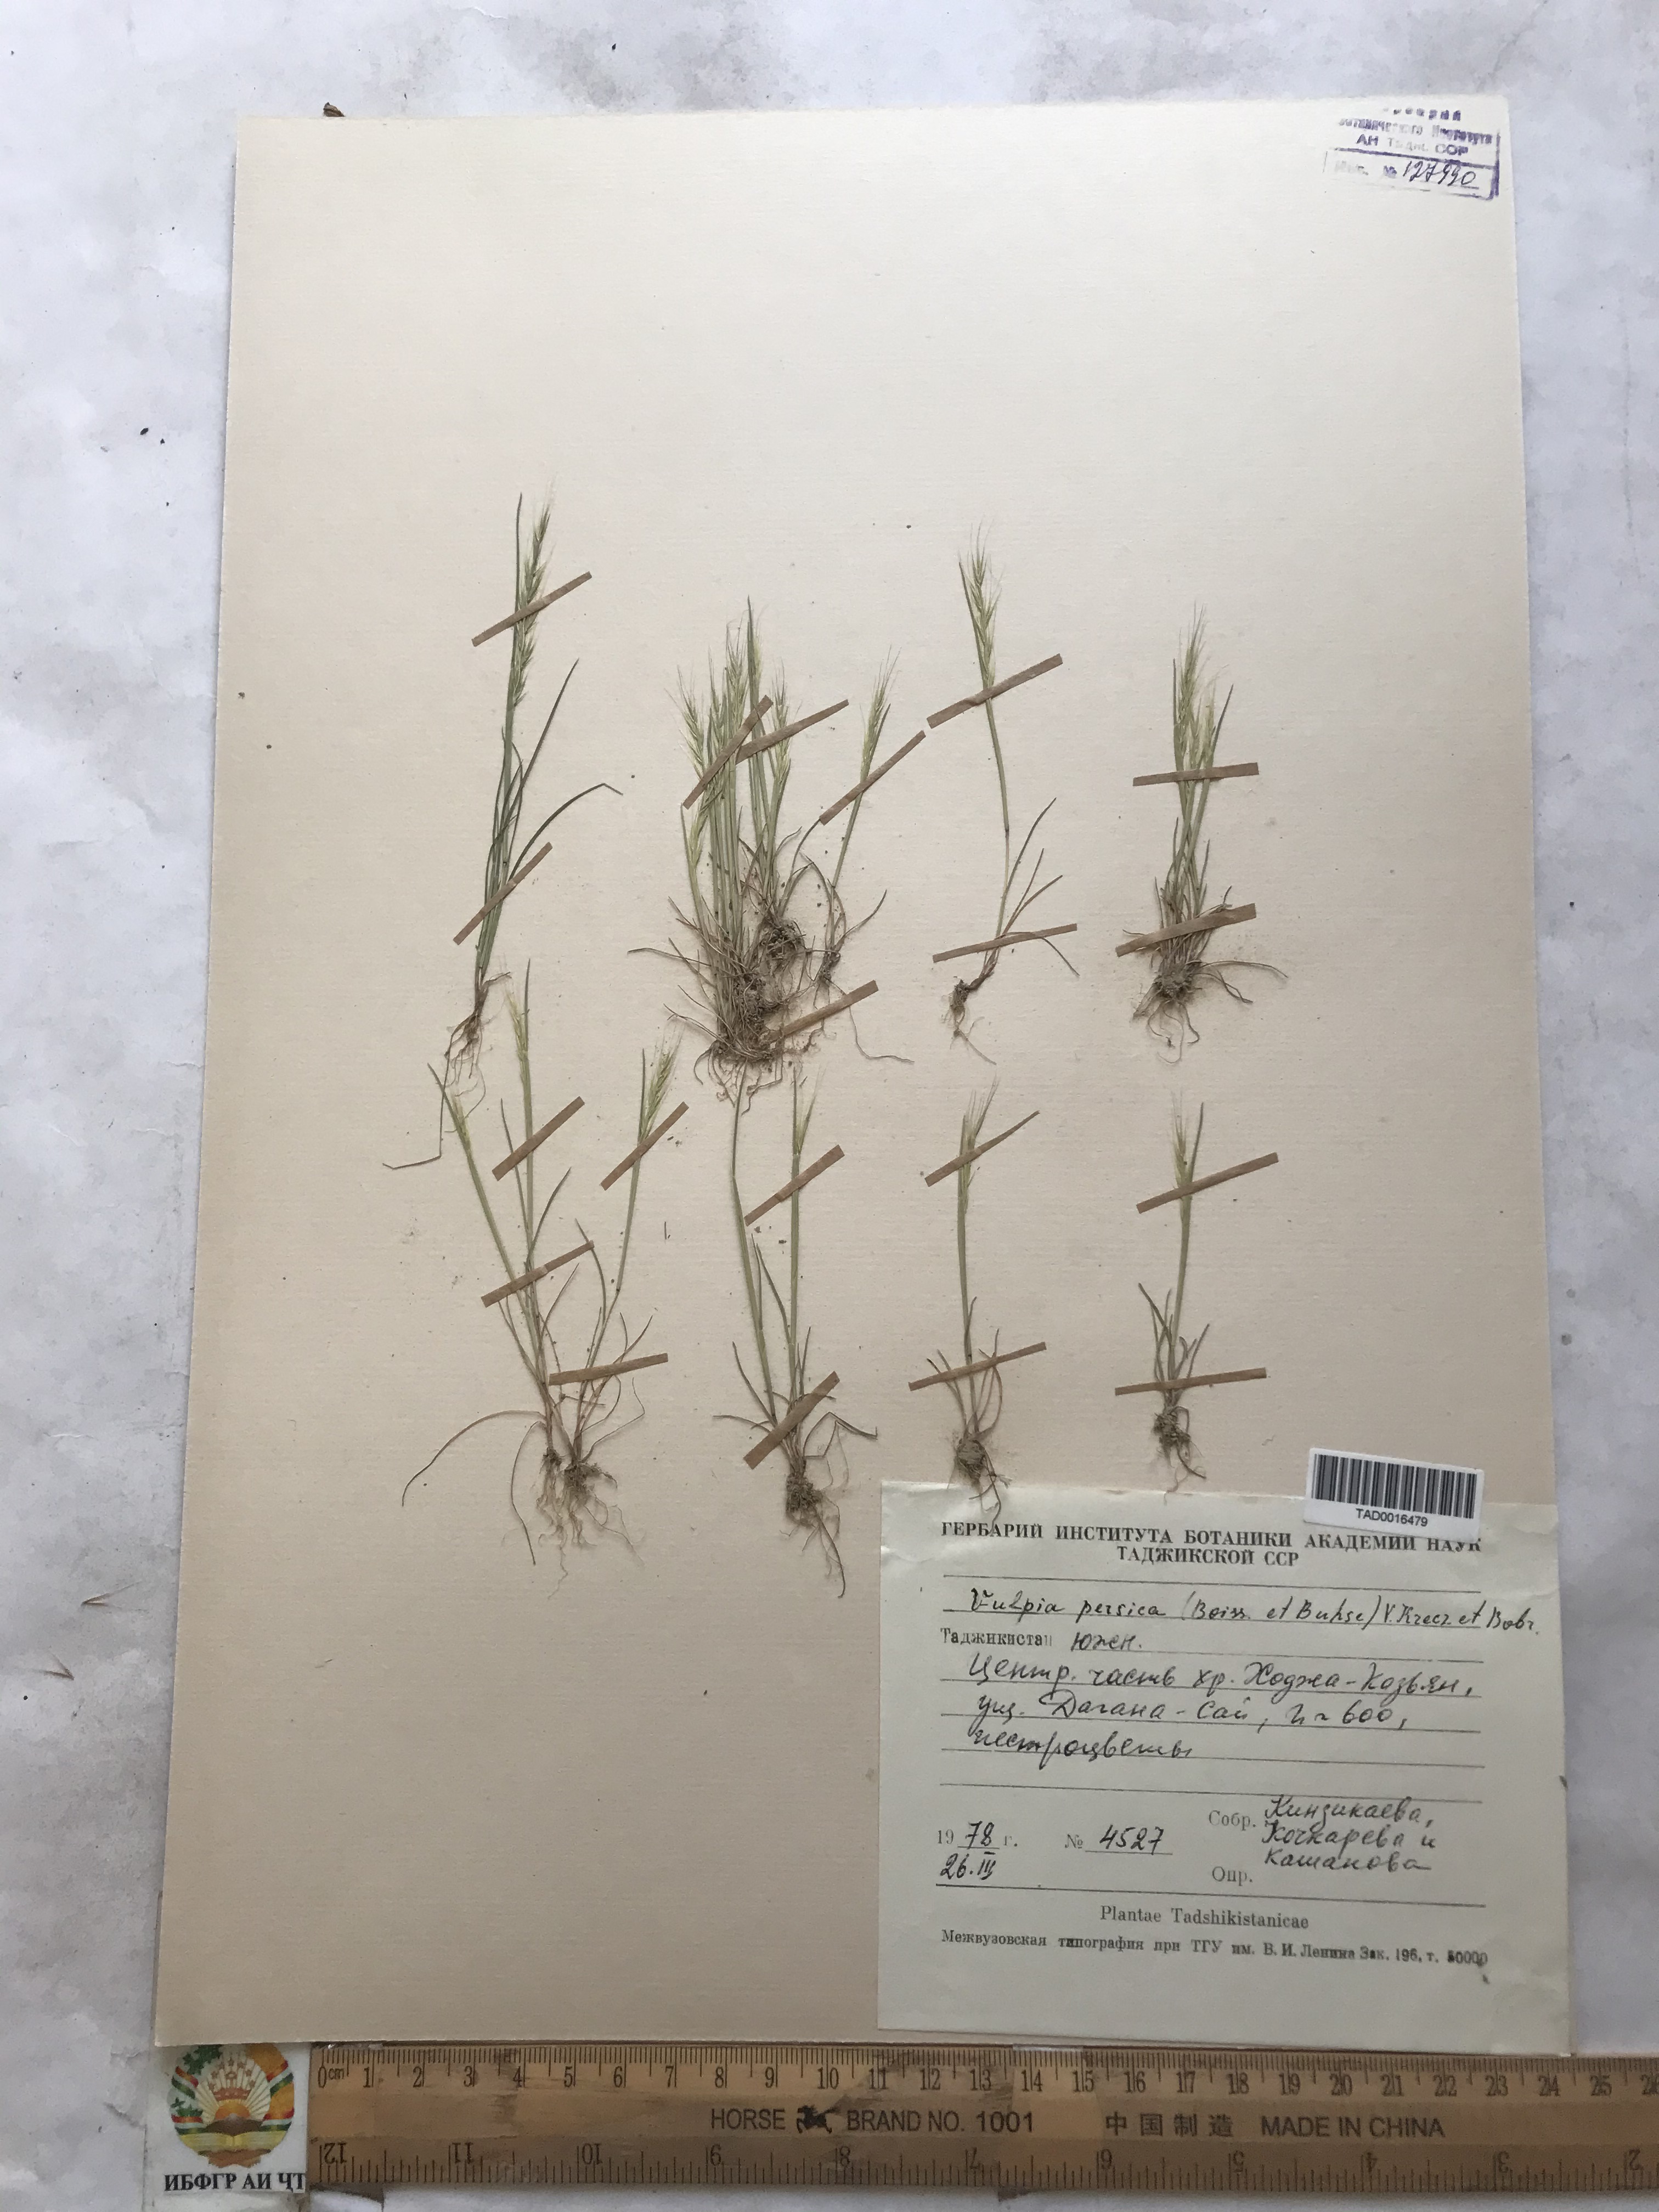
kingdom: Plantae
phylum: Tracheophyta
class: Liliopsida
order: Poales
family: Poaceae
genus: Festuca
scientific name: Festuca Vulpia persica
